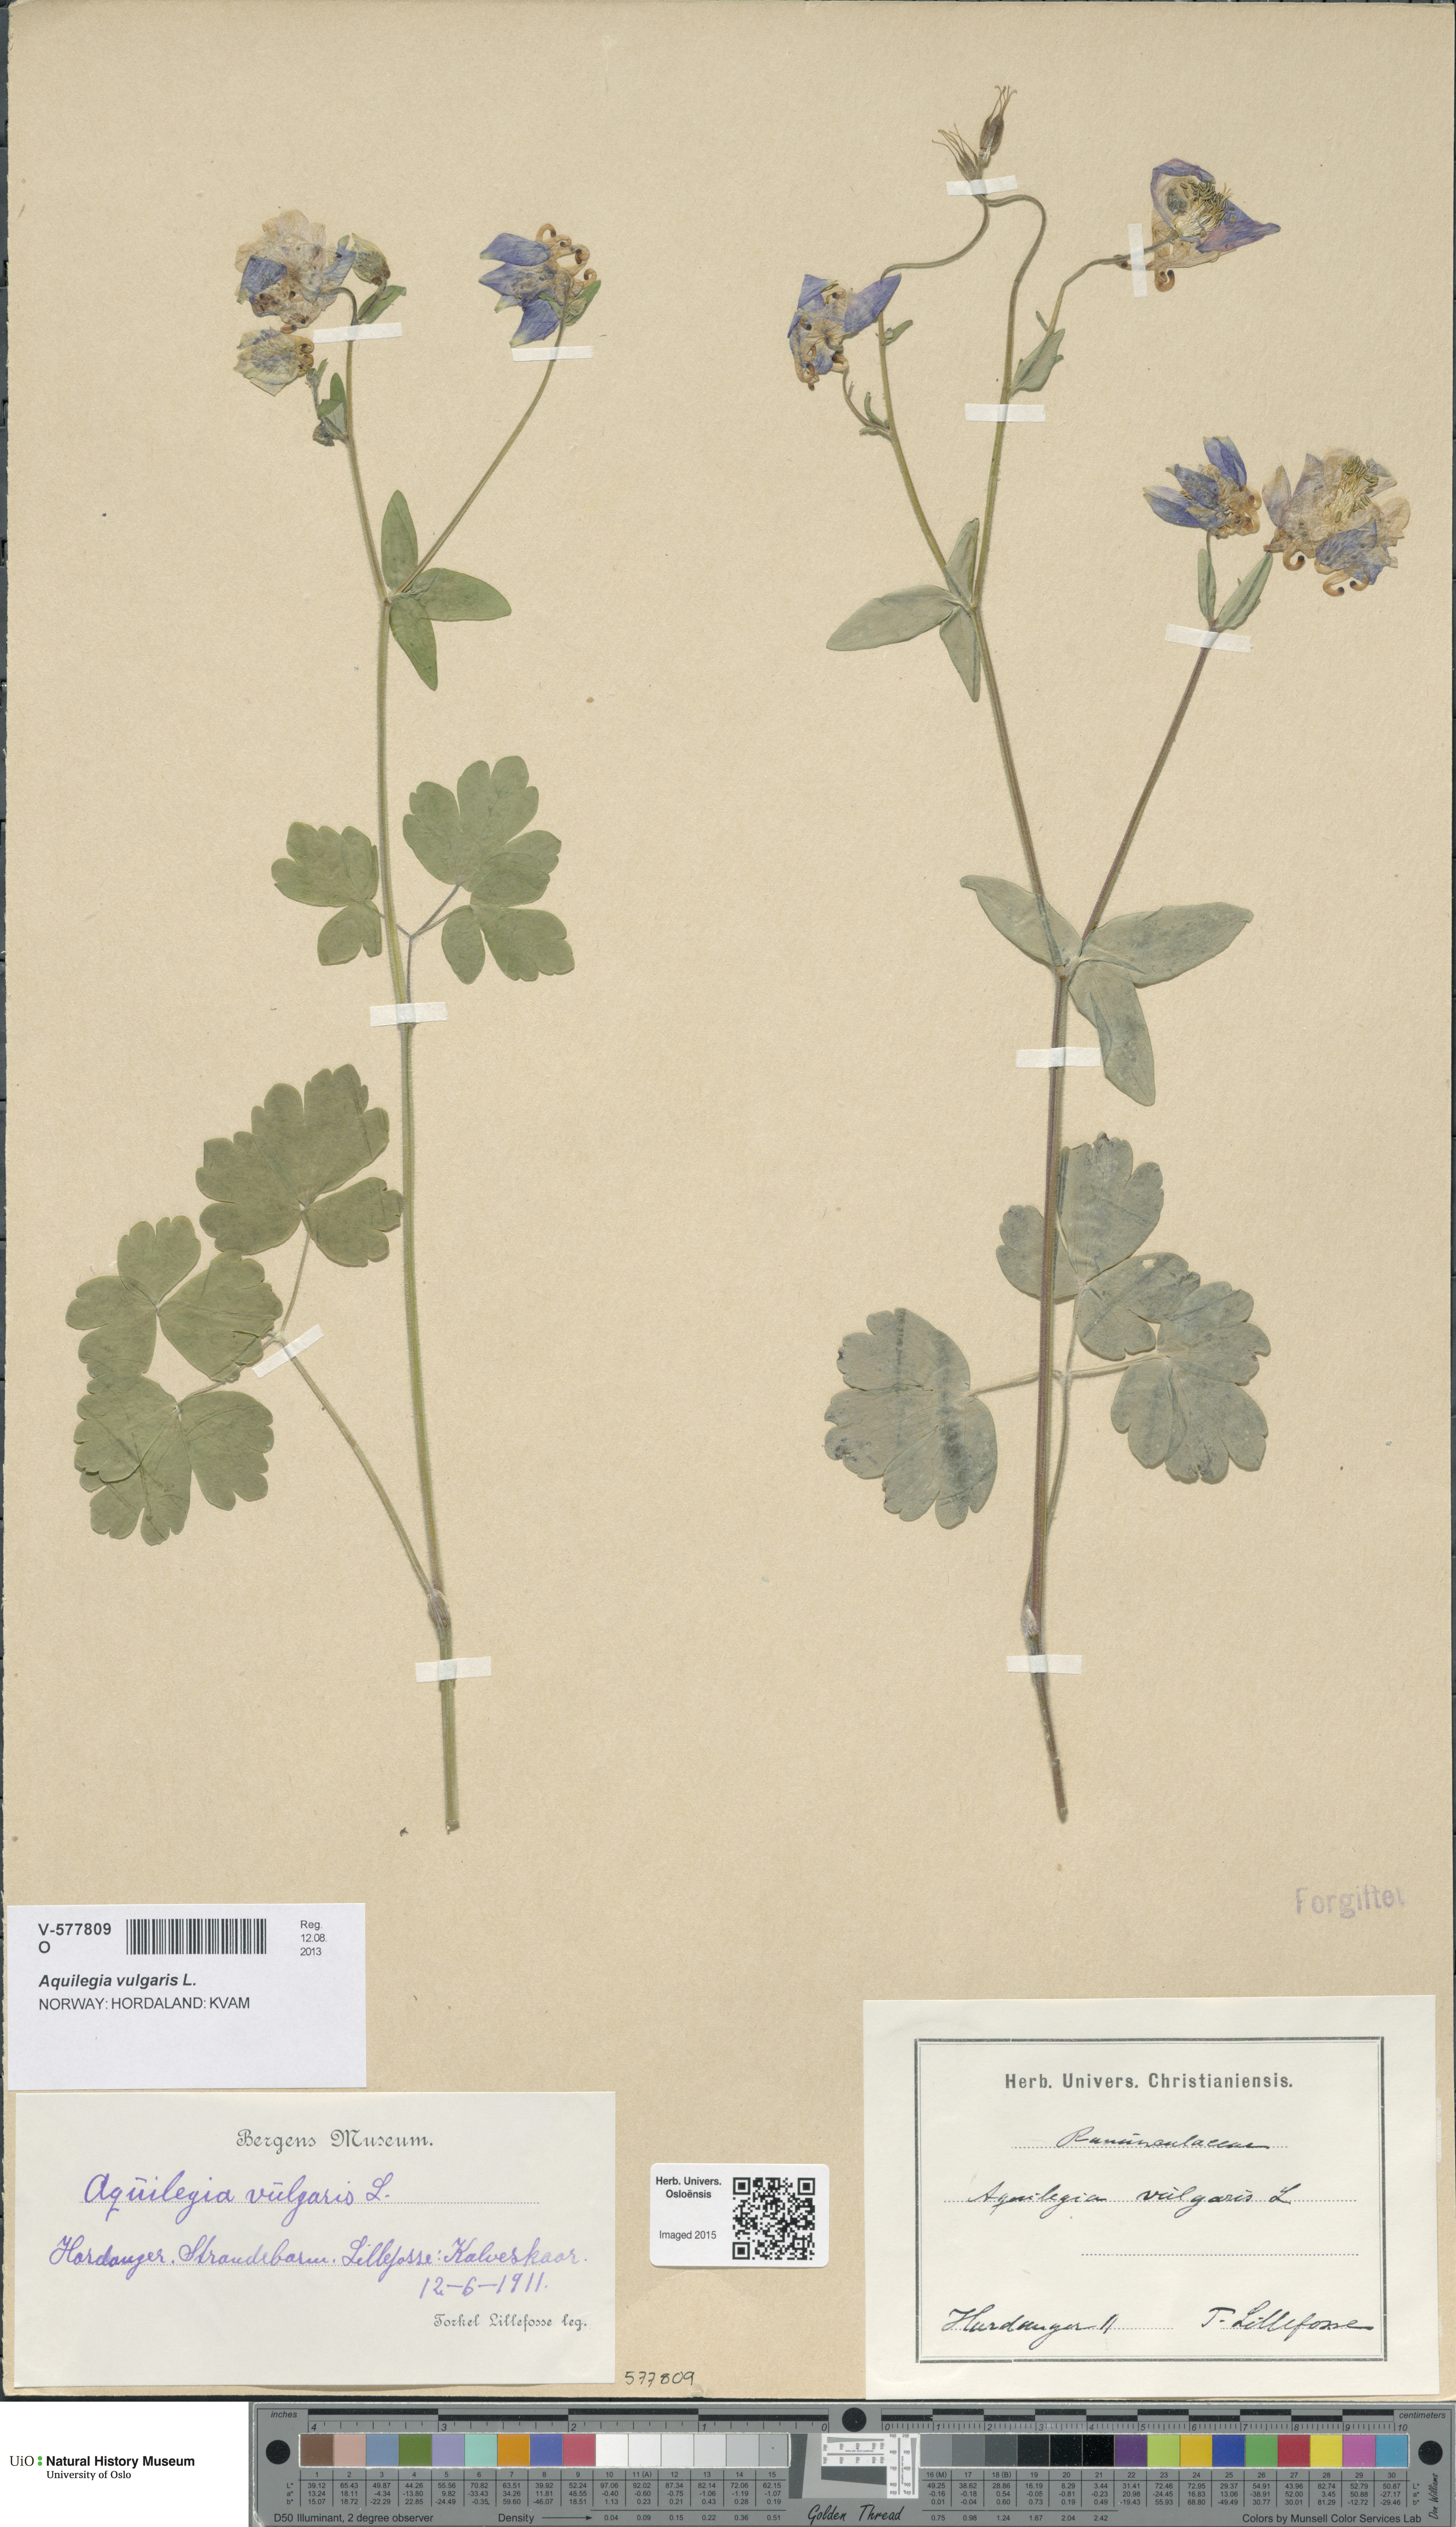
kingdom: Plantae
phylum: Tracheophyta
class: Magnoliopsida
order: Ranunculales
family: Ranunculaceae
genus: Aquilegia
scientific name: Aquilegia vulgaris
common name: Columbine
